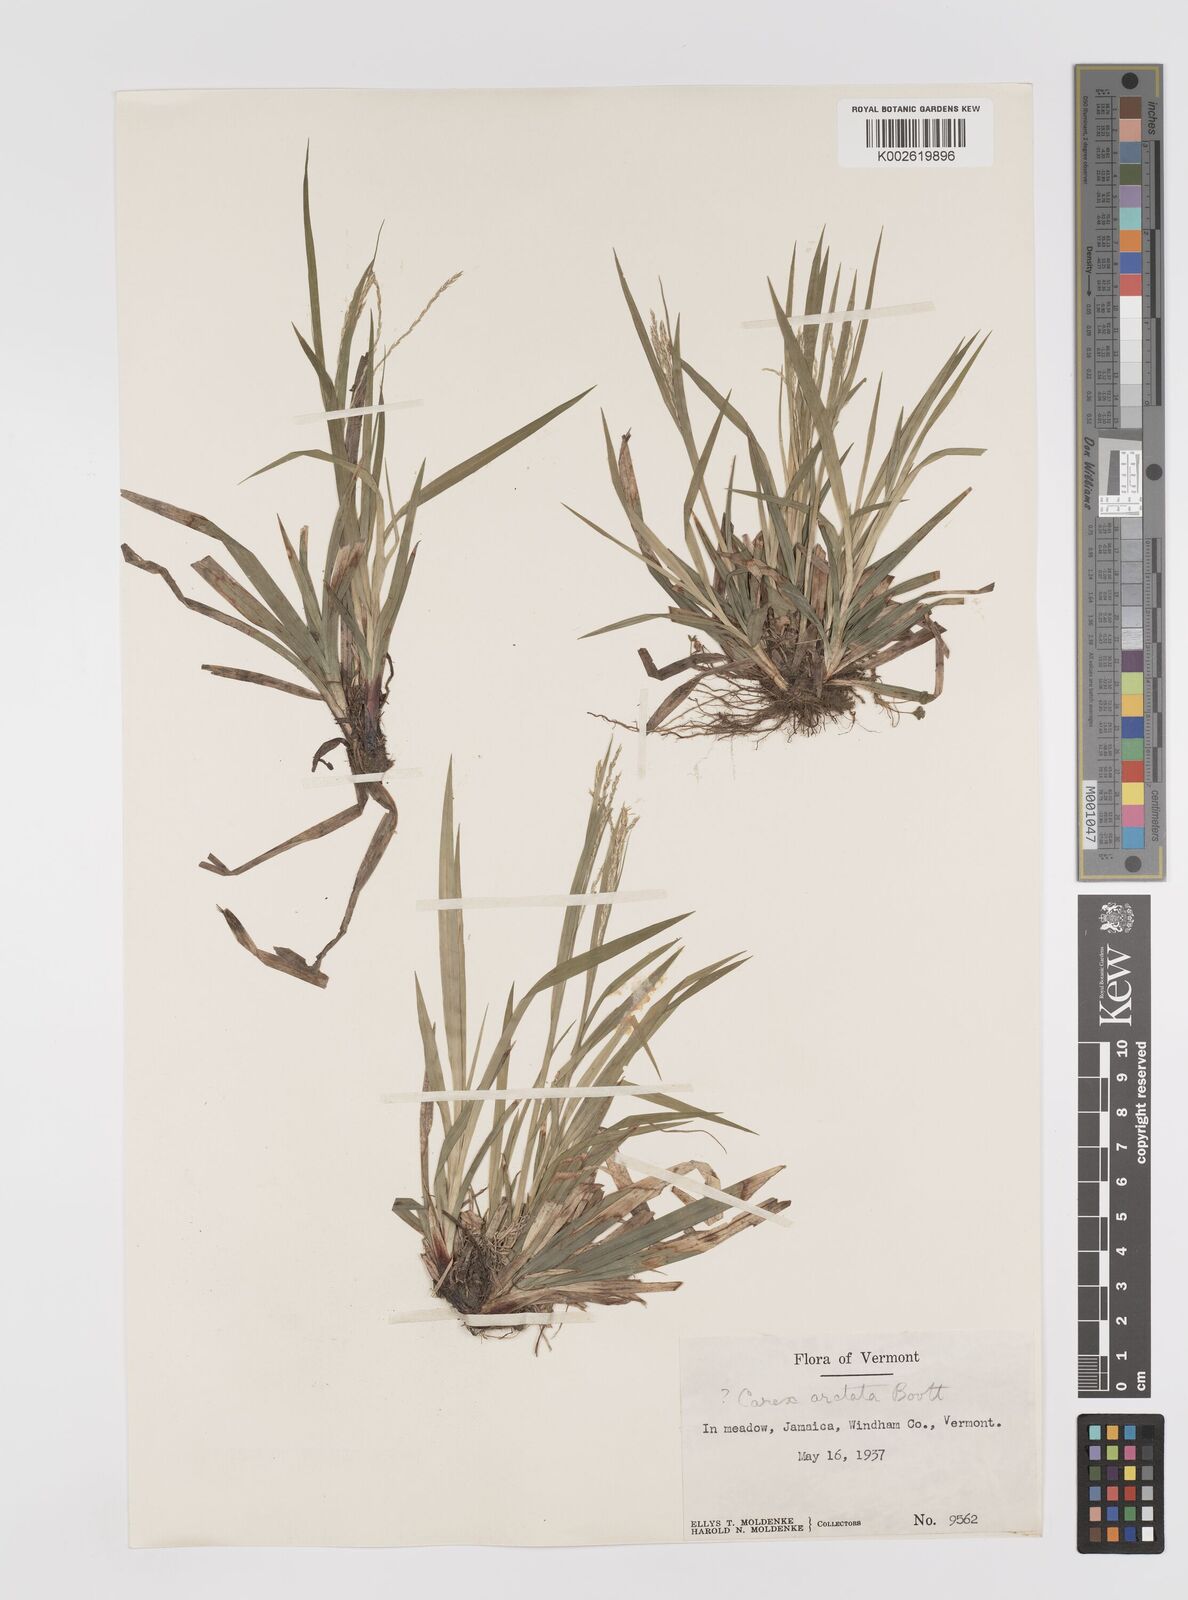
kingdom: Plantae
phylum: Tracheophyta
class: Liliopsida
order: Poales
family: Cyperaceae
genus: Carex
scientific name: Carex arctata
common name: Black sedge
